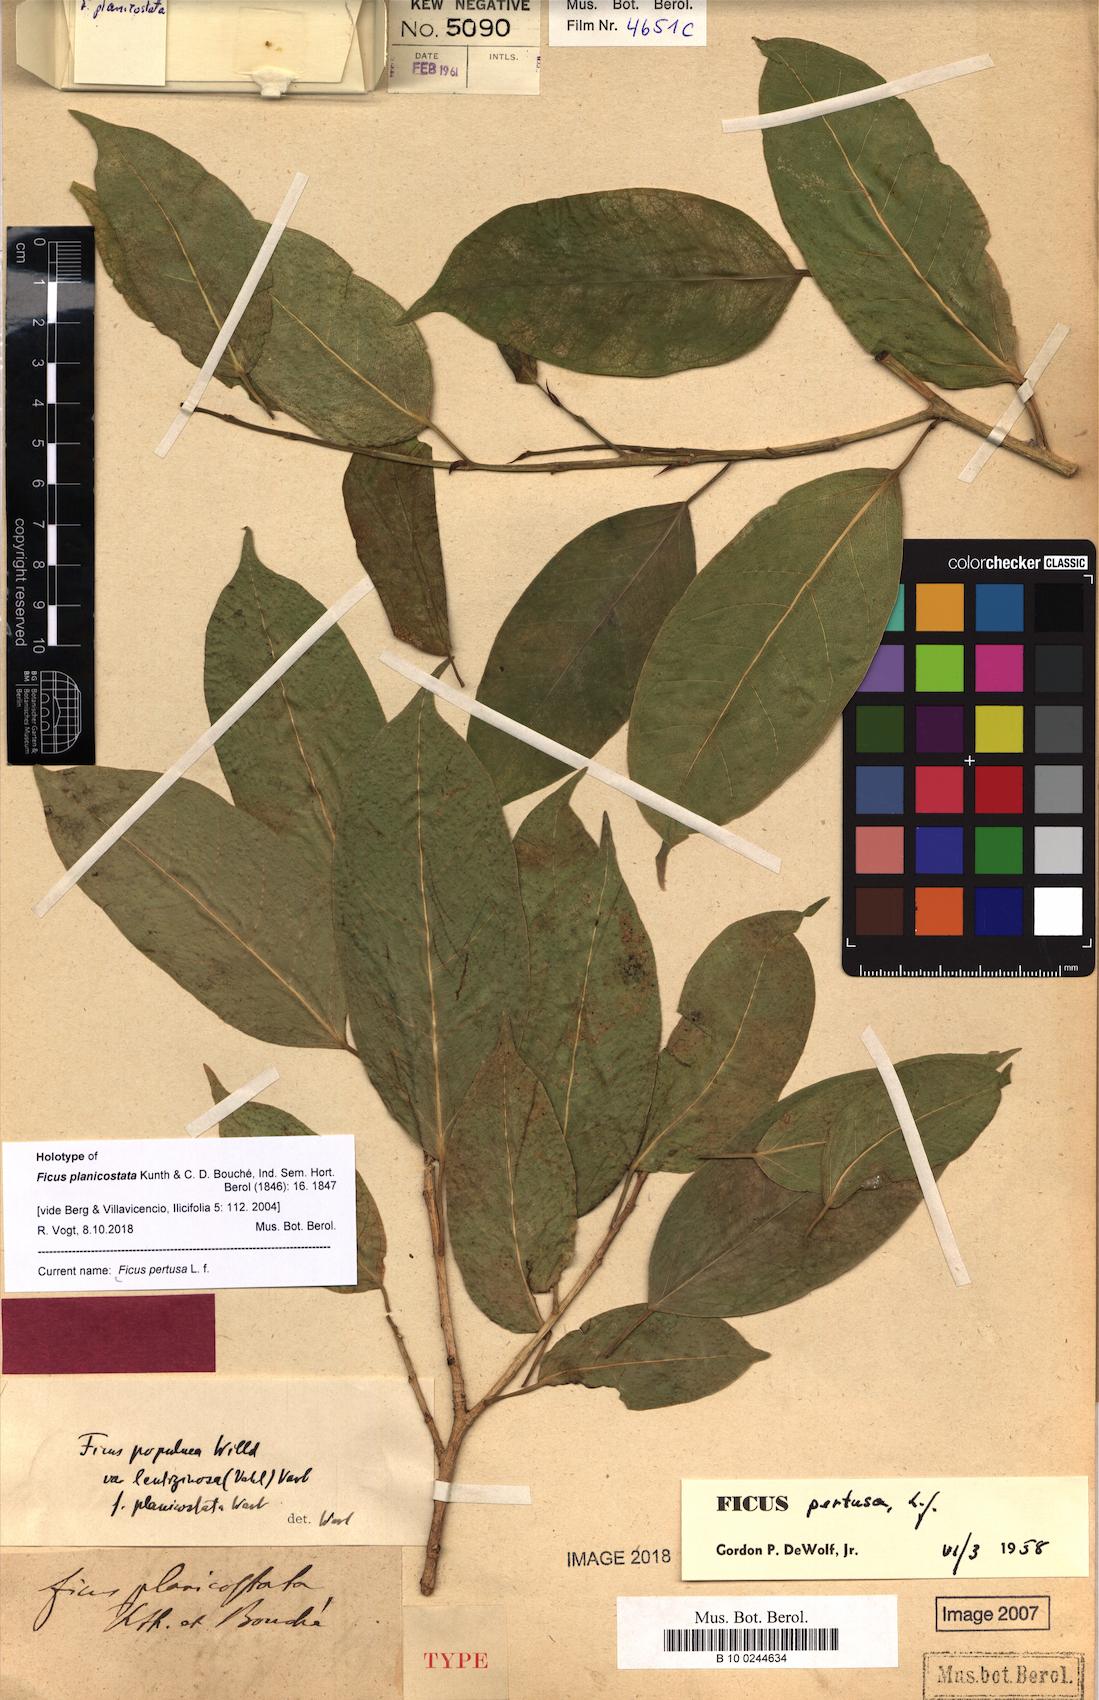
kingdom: Plantae
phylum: Tracheophyta
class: Magnoliopsida
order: Rosales
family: Moraceae
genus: Ficus
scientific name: Ficus pertusa
